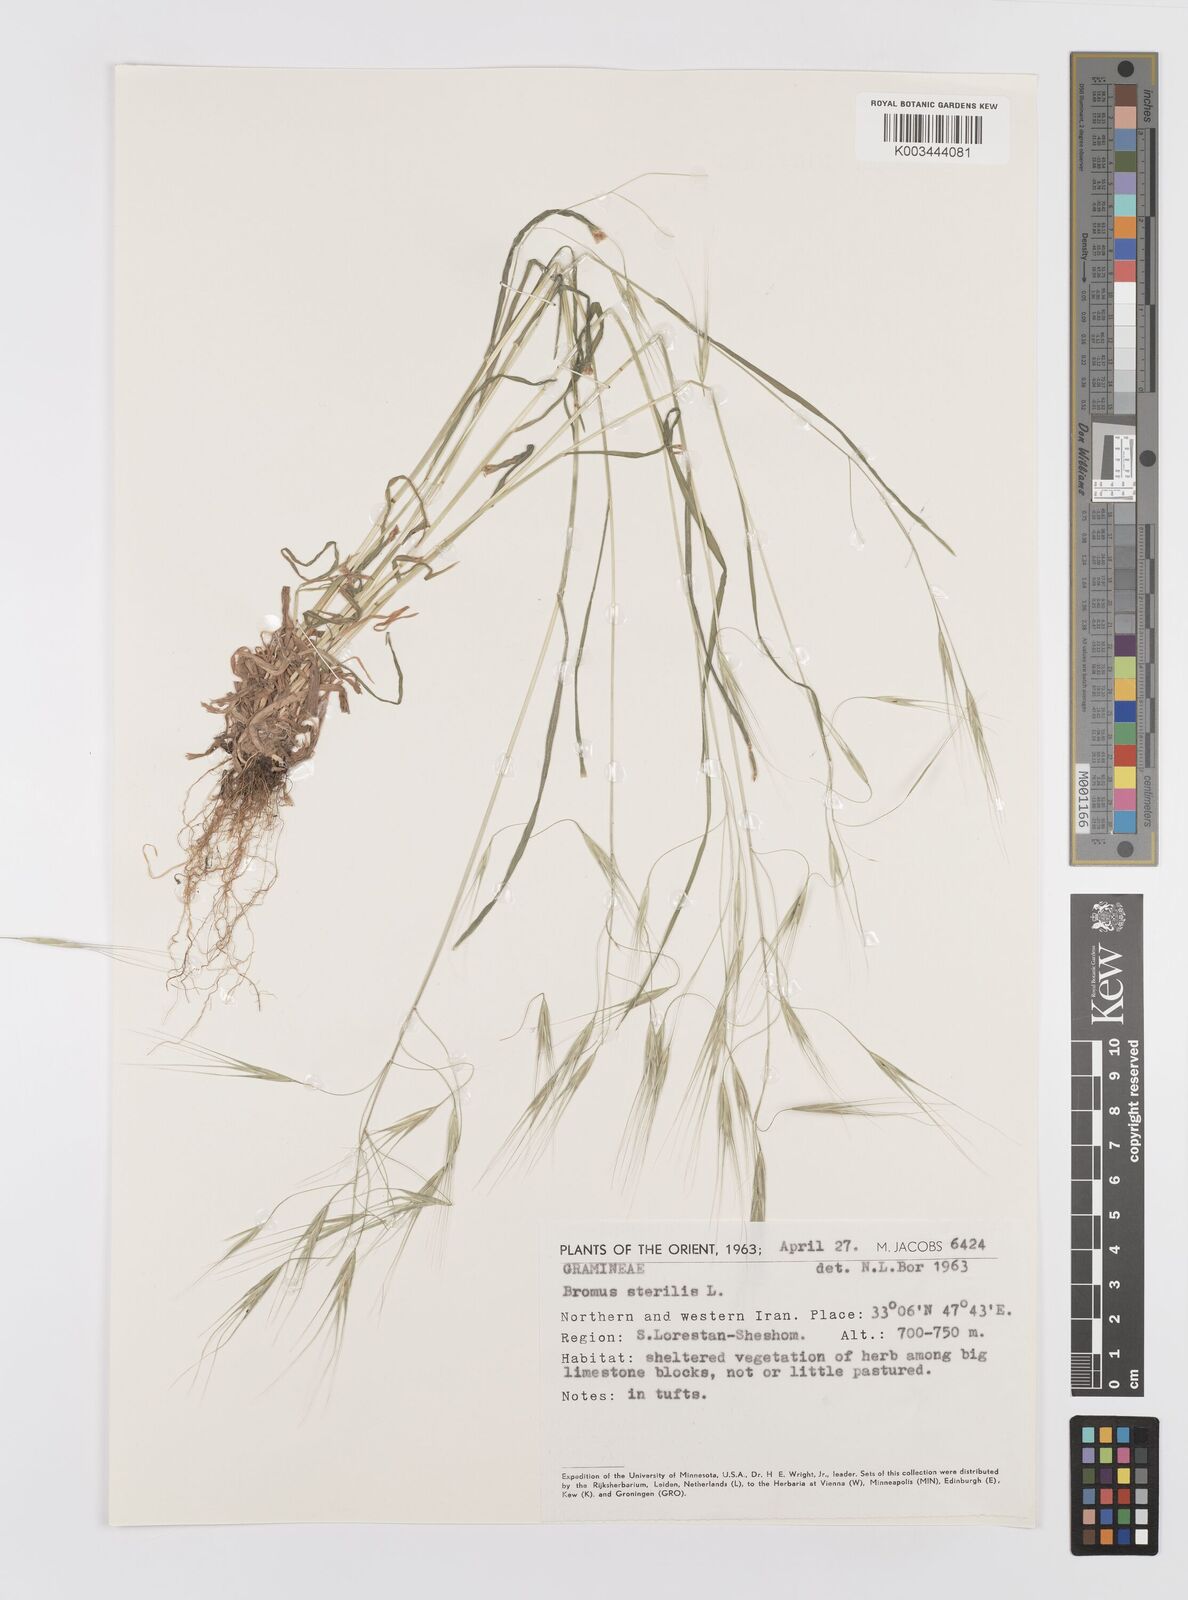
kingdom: Plantae
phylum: Tracheophyta
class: Liliopsida
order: Poales
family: Poaceae
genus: Bromus
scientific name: Bromus sterilis
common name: Poverty brome
